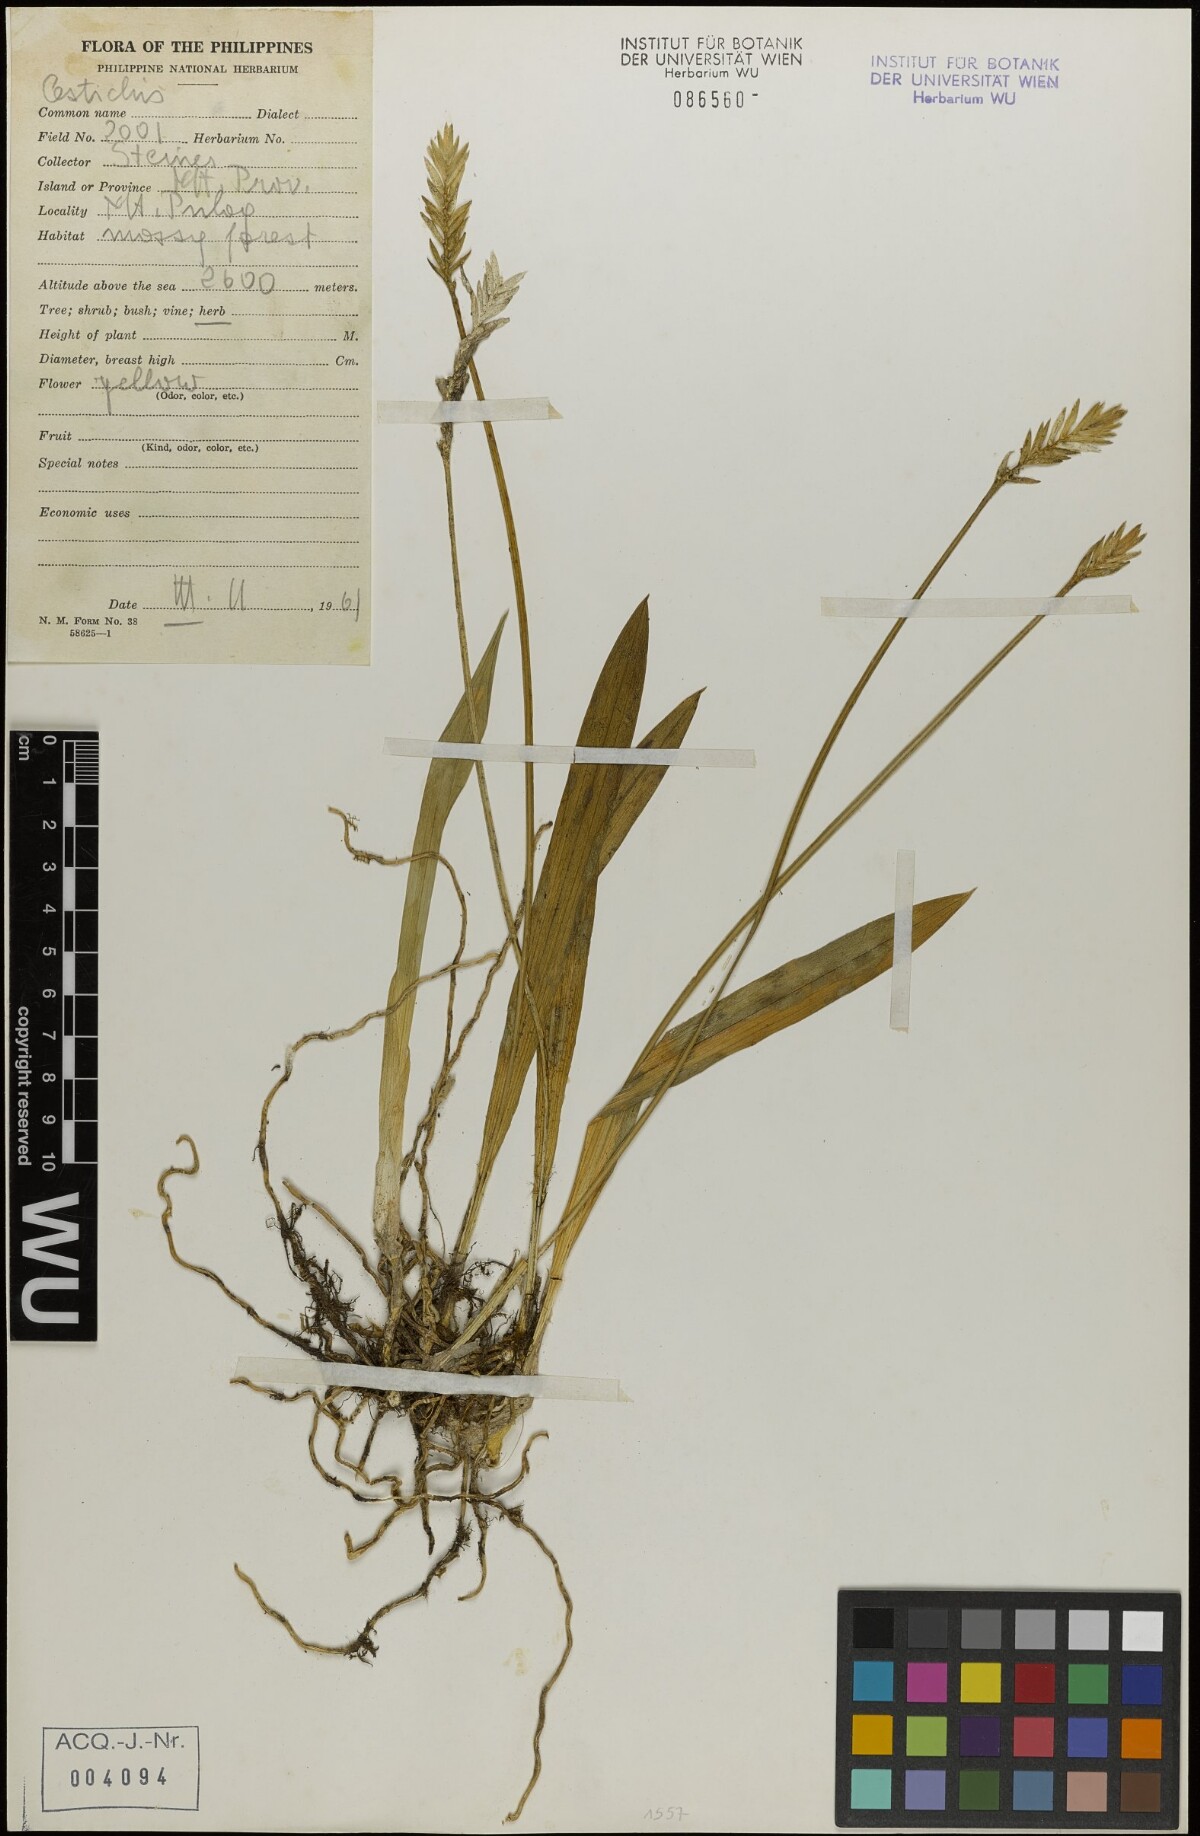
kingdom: Plantae
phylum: Tracheophyta
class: Liliopsida
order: Asparagales
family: Orchidaceae
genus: Liparis
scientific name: Liparis
